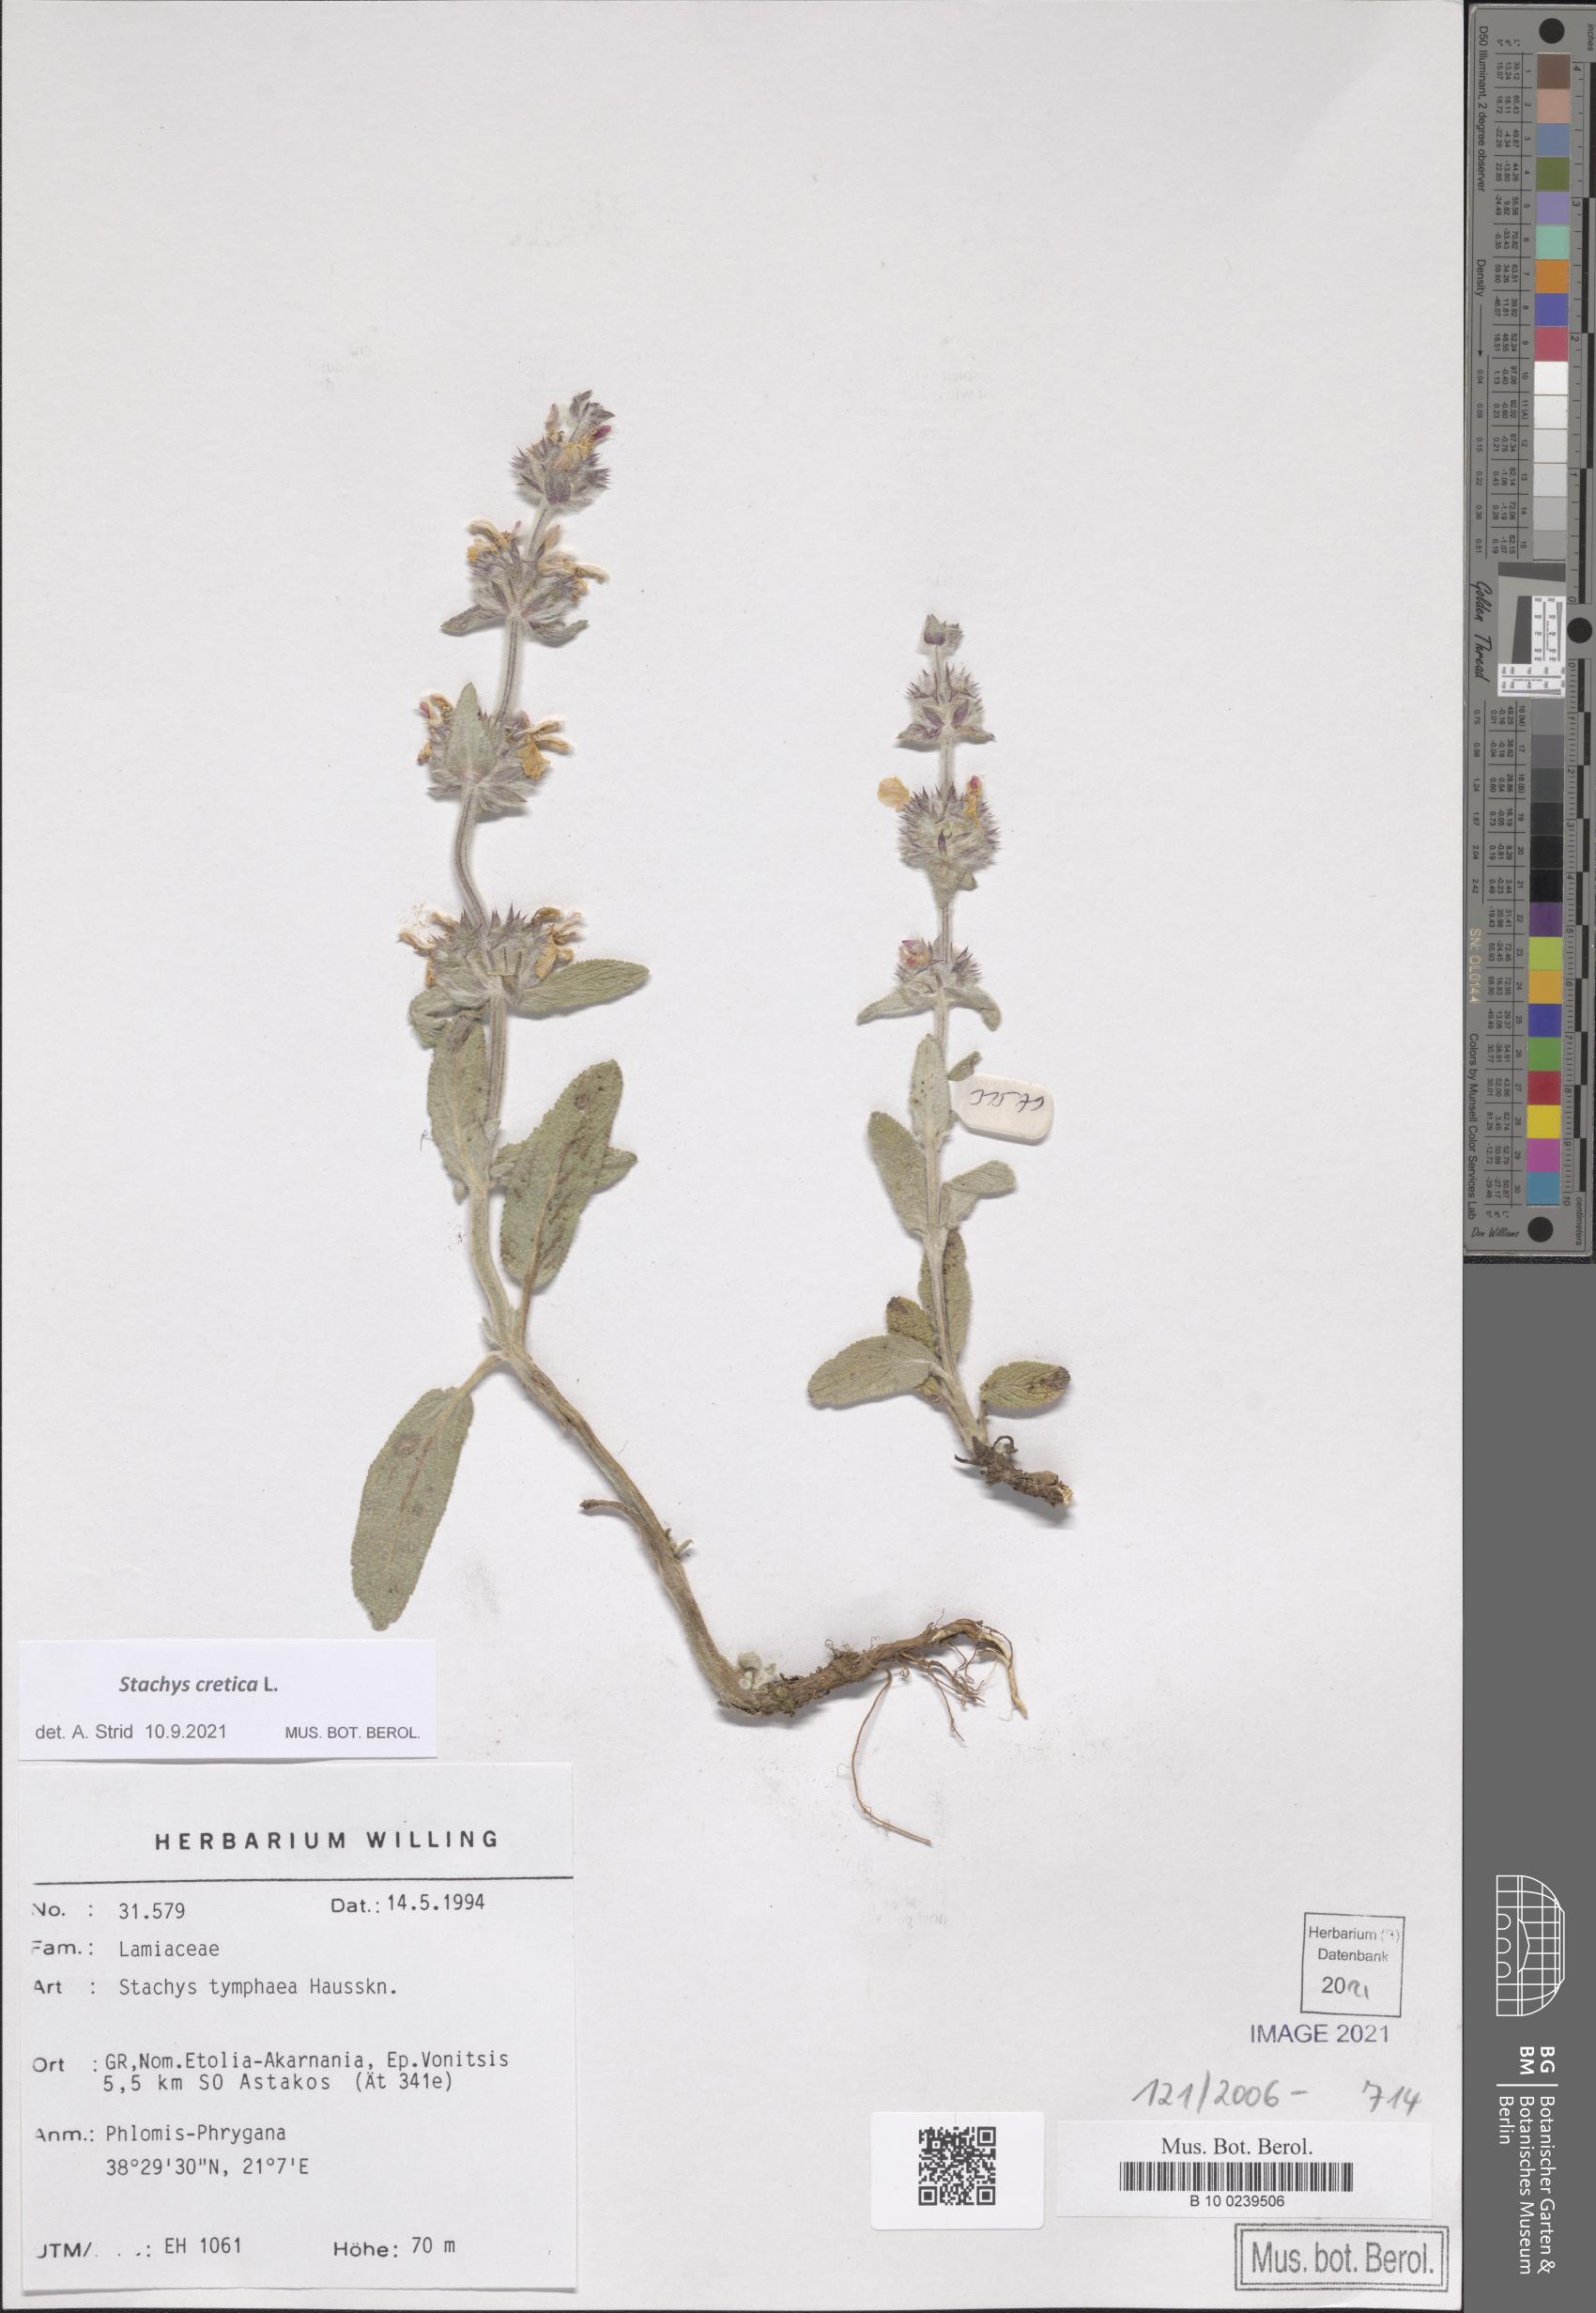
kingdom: Plantae
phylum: Tracheophyta
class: Magnoliopsida
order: Lamiales
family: Lamiaceae
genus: Stachys
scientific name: Stachys cretica
